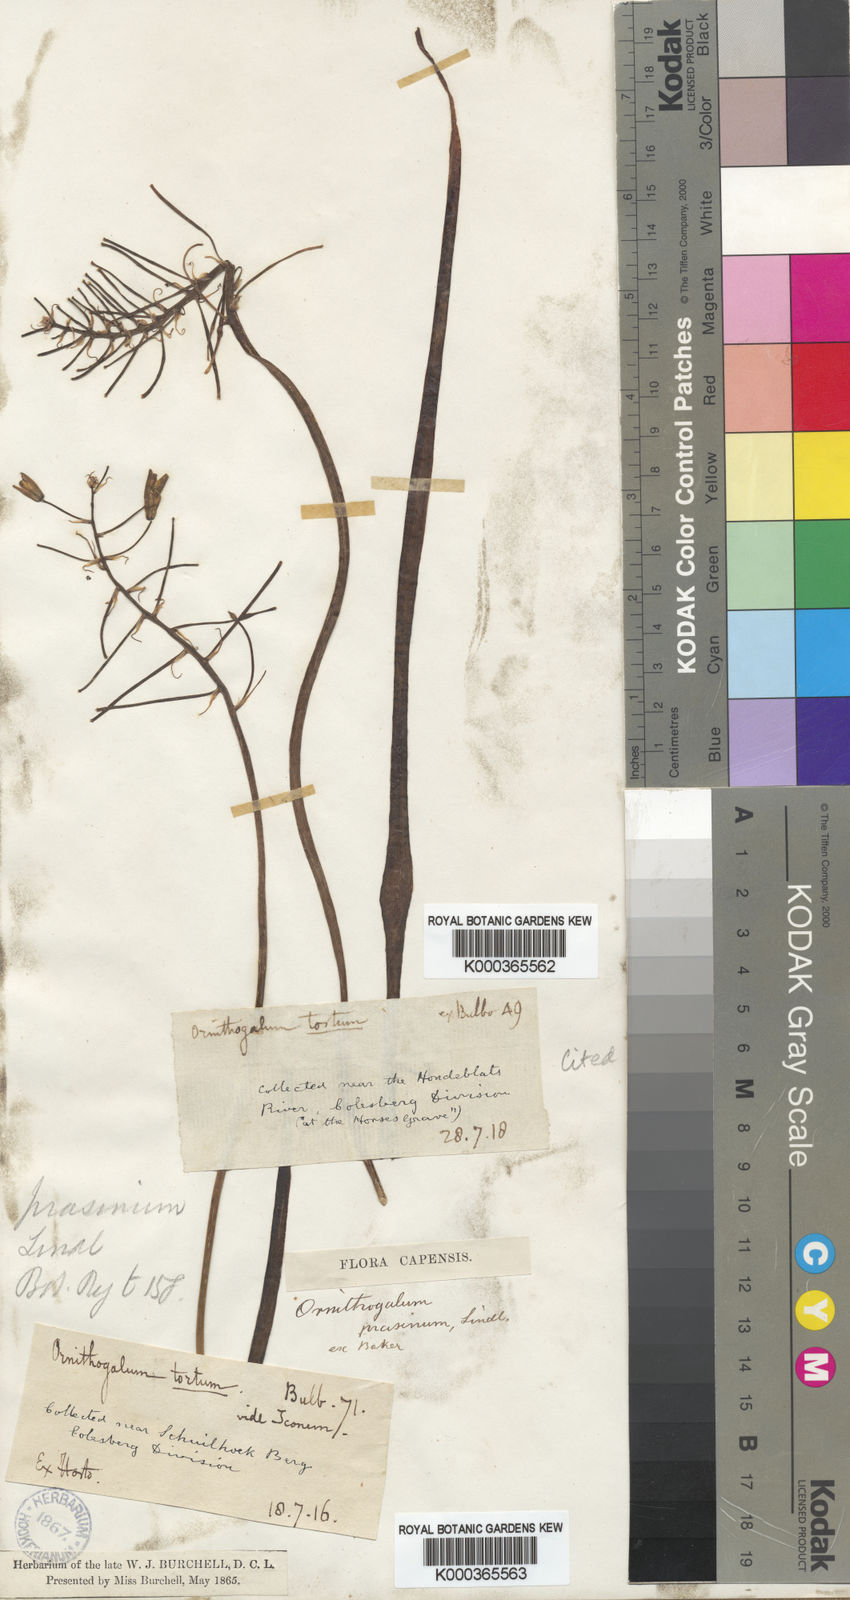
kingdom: Plantae
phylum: Tracheophyta
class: Liliopsida
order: Asparagales
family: Asparagaceae
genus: Ornithogalum
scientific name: Ornithogalum
